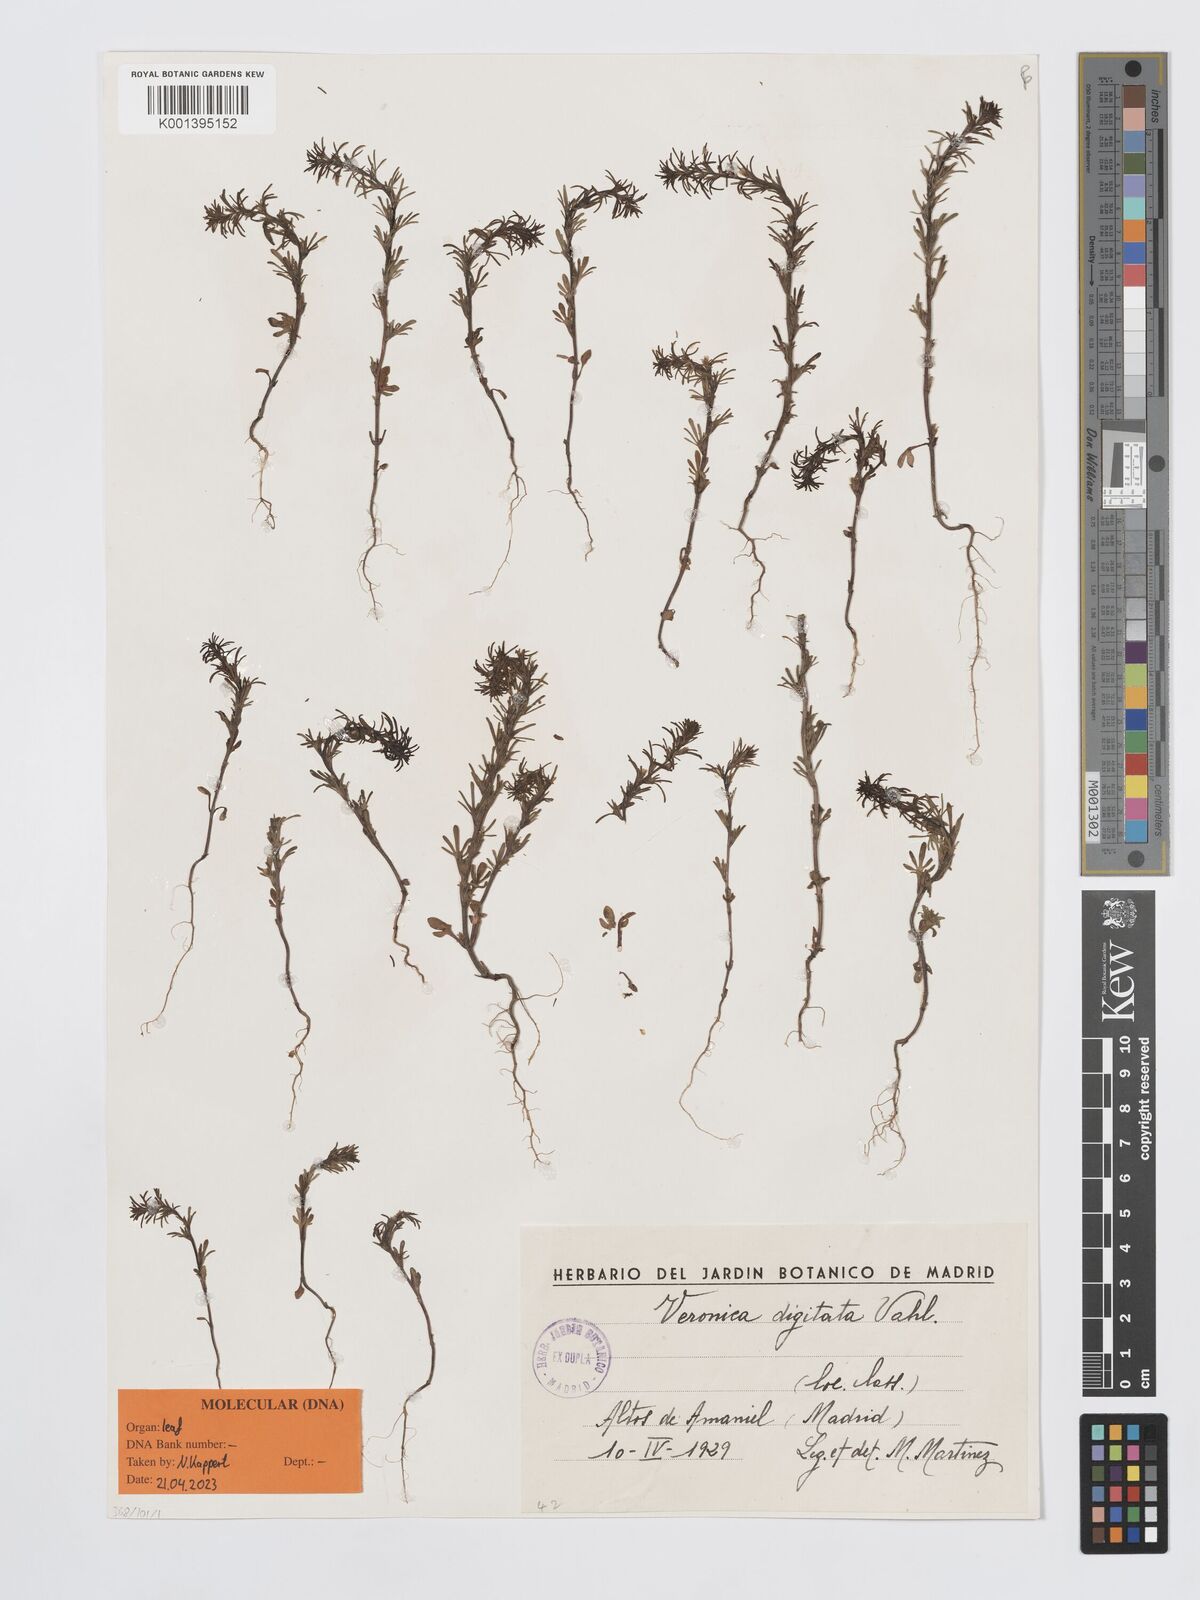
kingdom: Plantae
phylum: Tracheophyta
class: Magnoliopsida
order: Lamiales
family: Plantaginaceae
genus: Veronica
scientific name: Veronica chamaepithyoides
